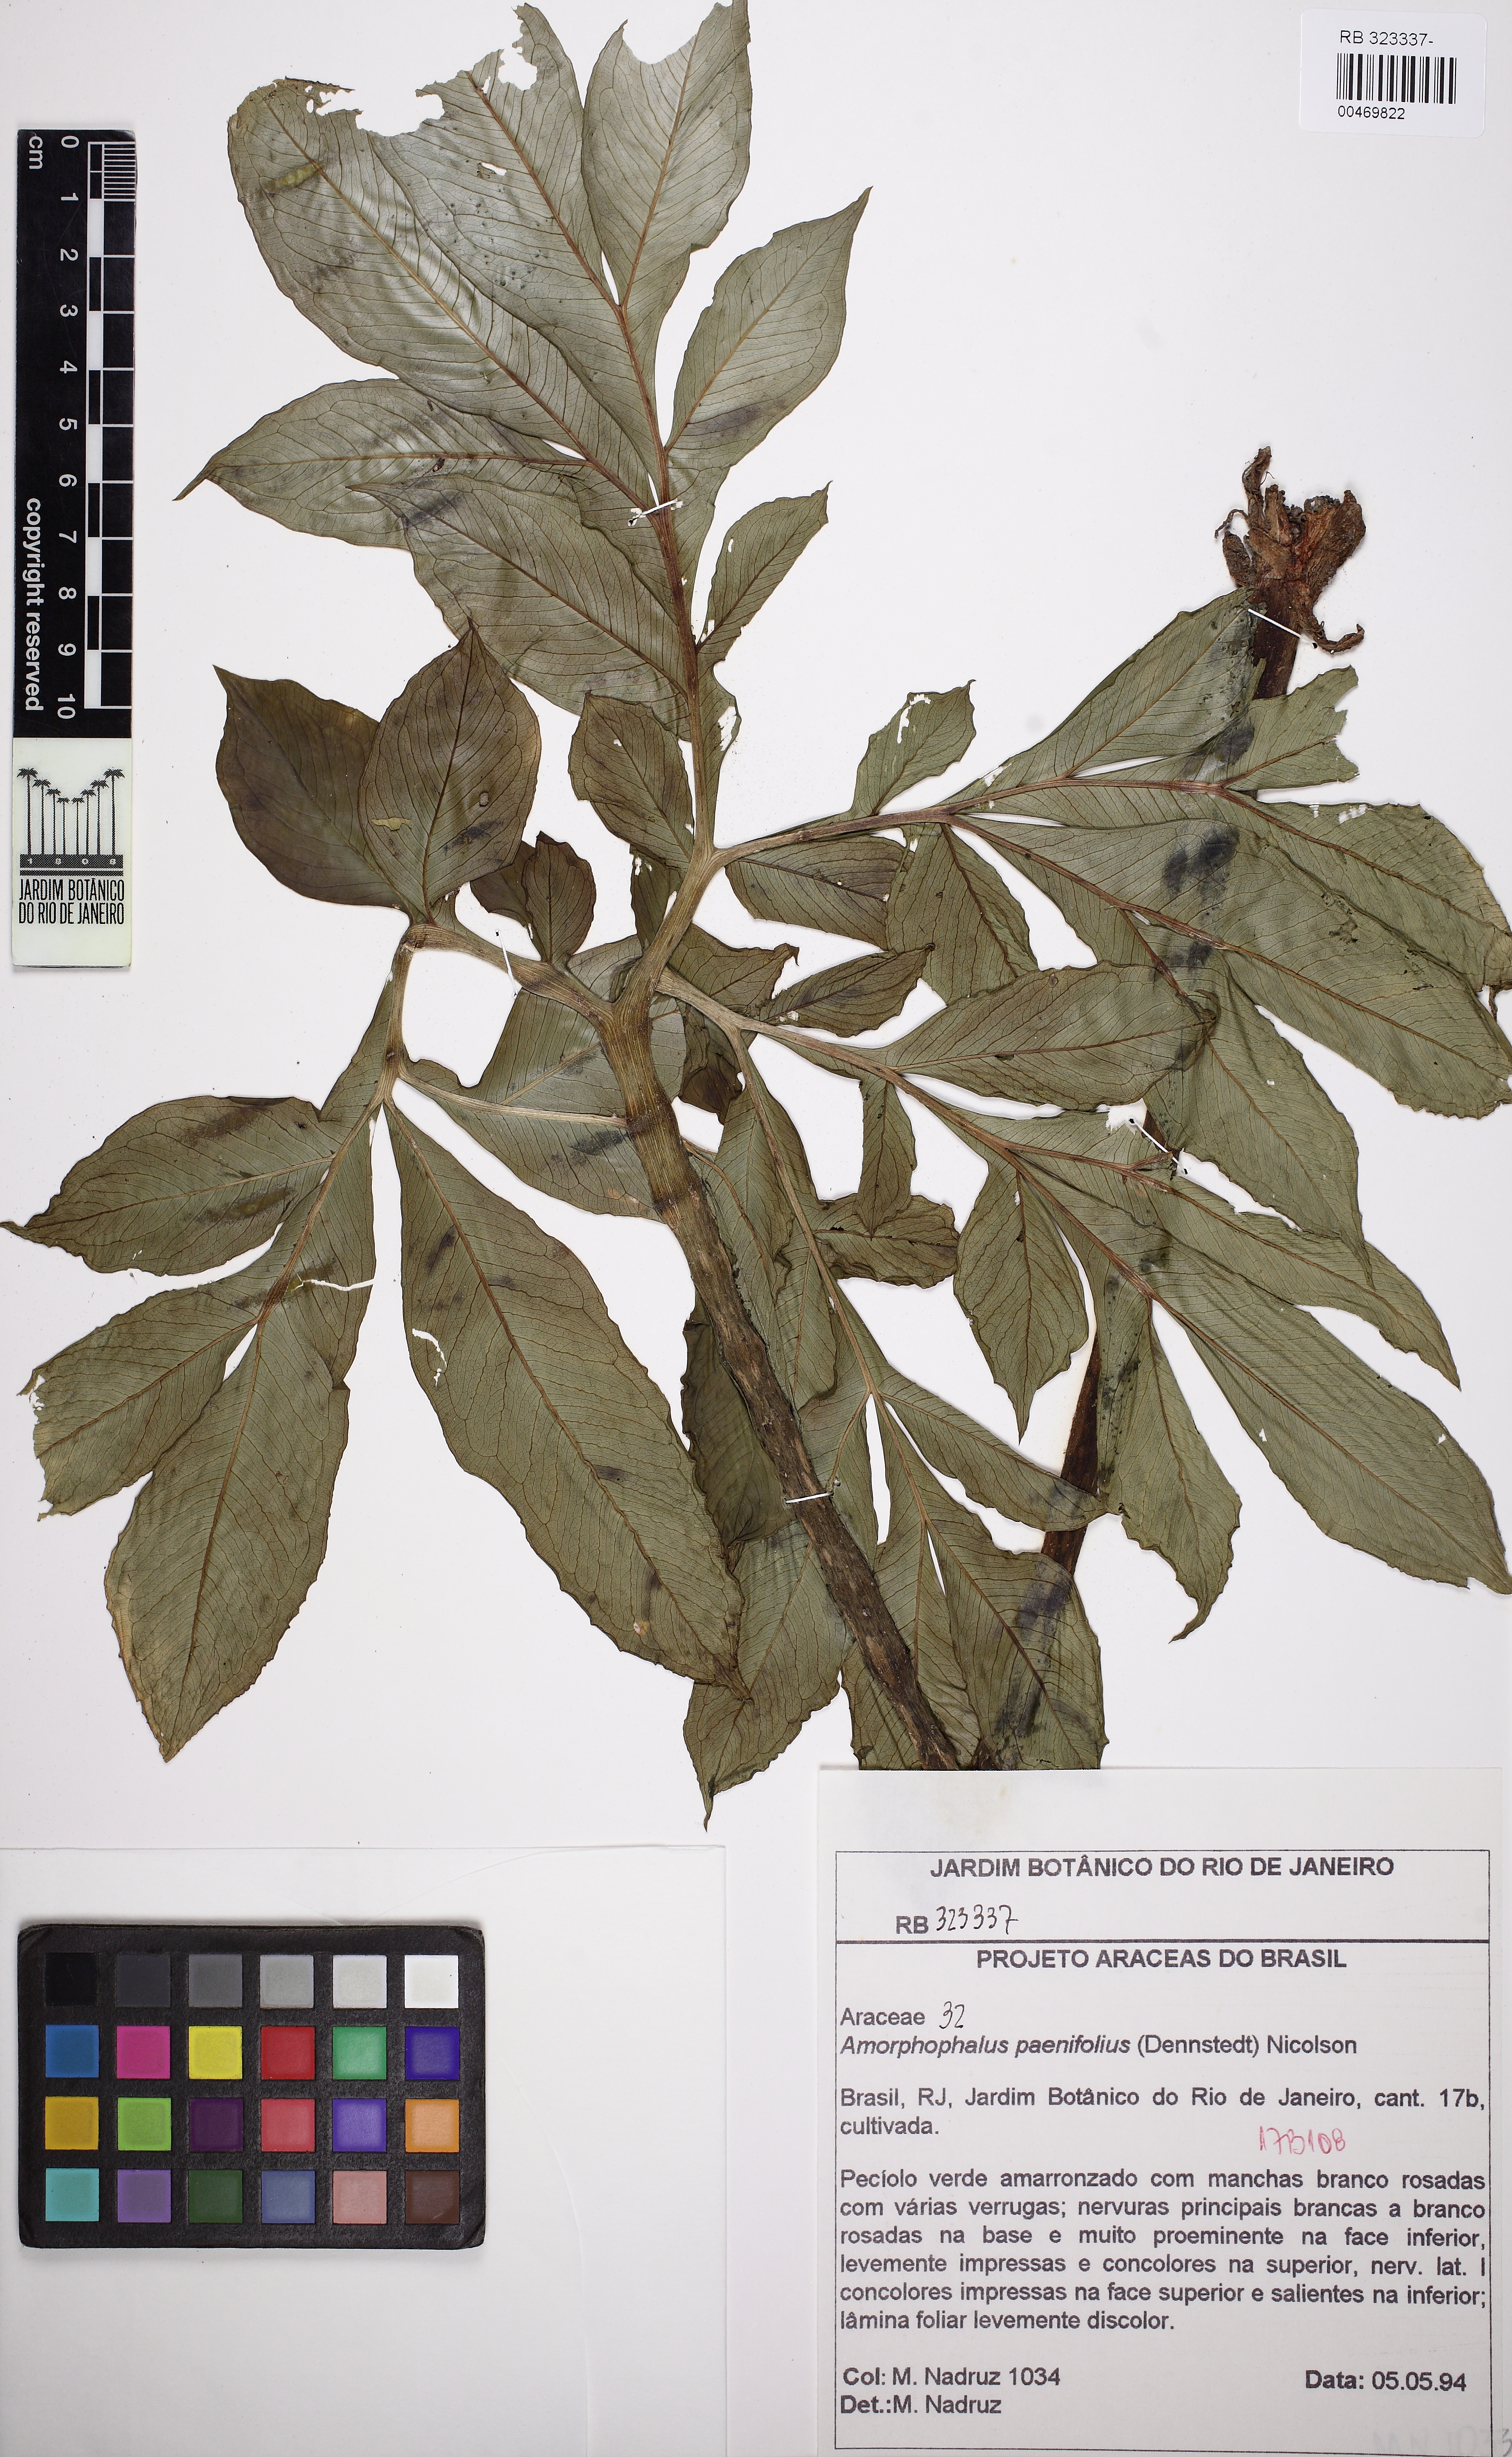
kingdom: Plantae
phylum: Tracheophyta
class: Liliopsida
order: Alismatales
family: Araceae
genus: Amorphophallus
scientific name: Amorphophallus paeoniifolius
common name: Telinga-potato
